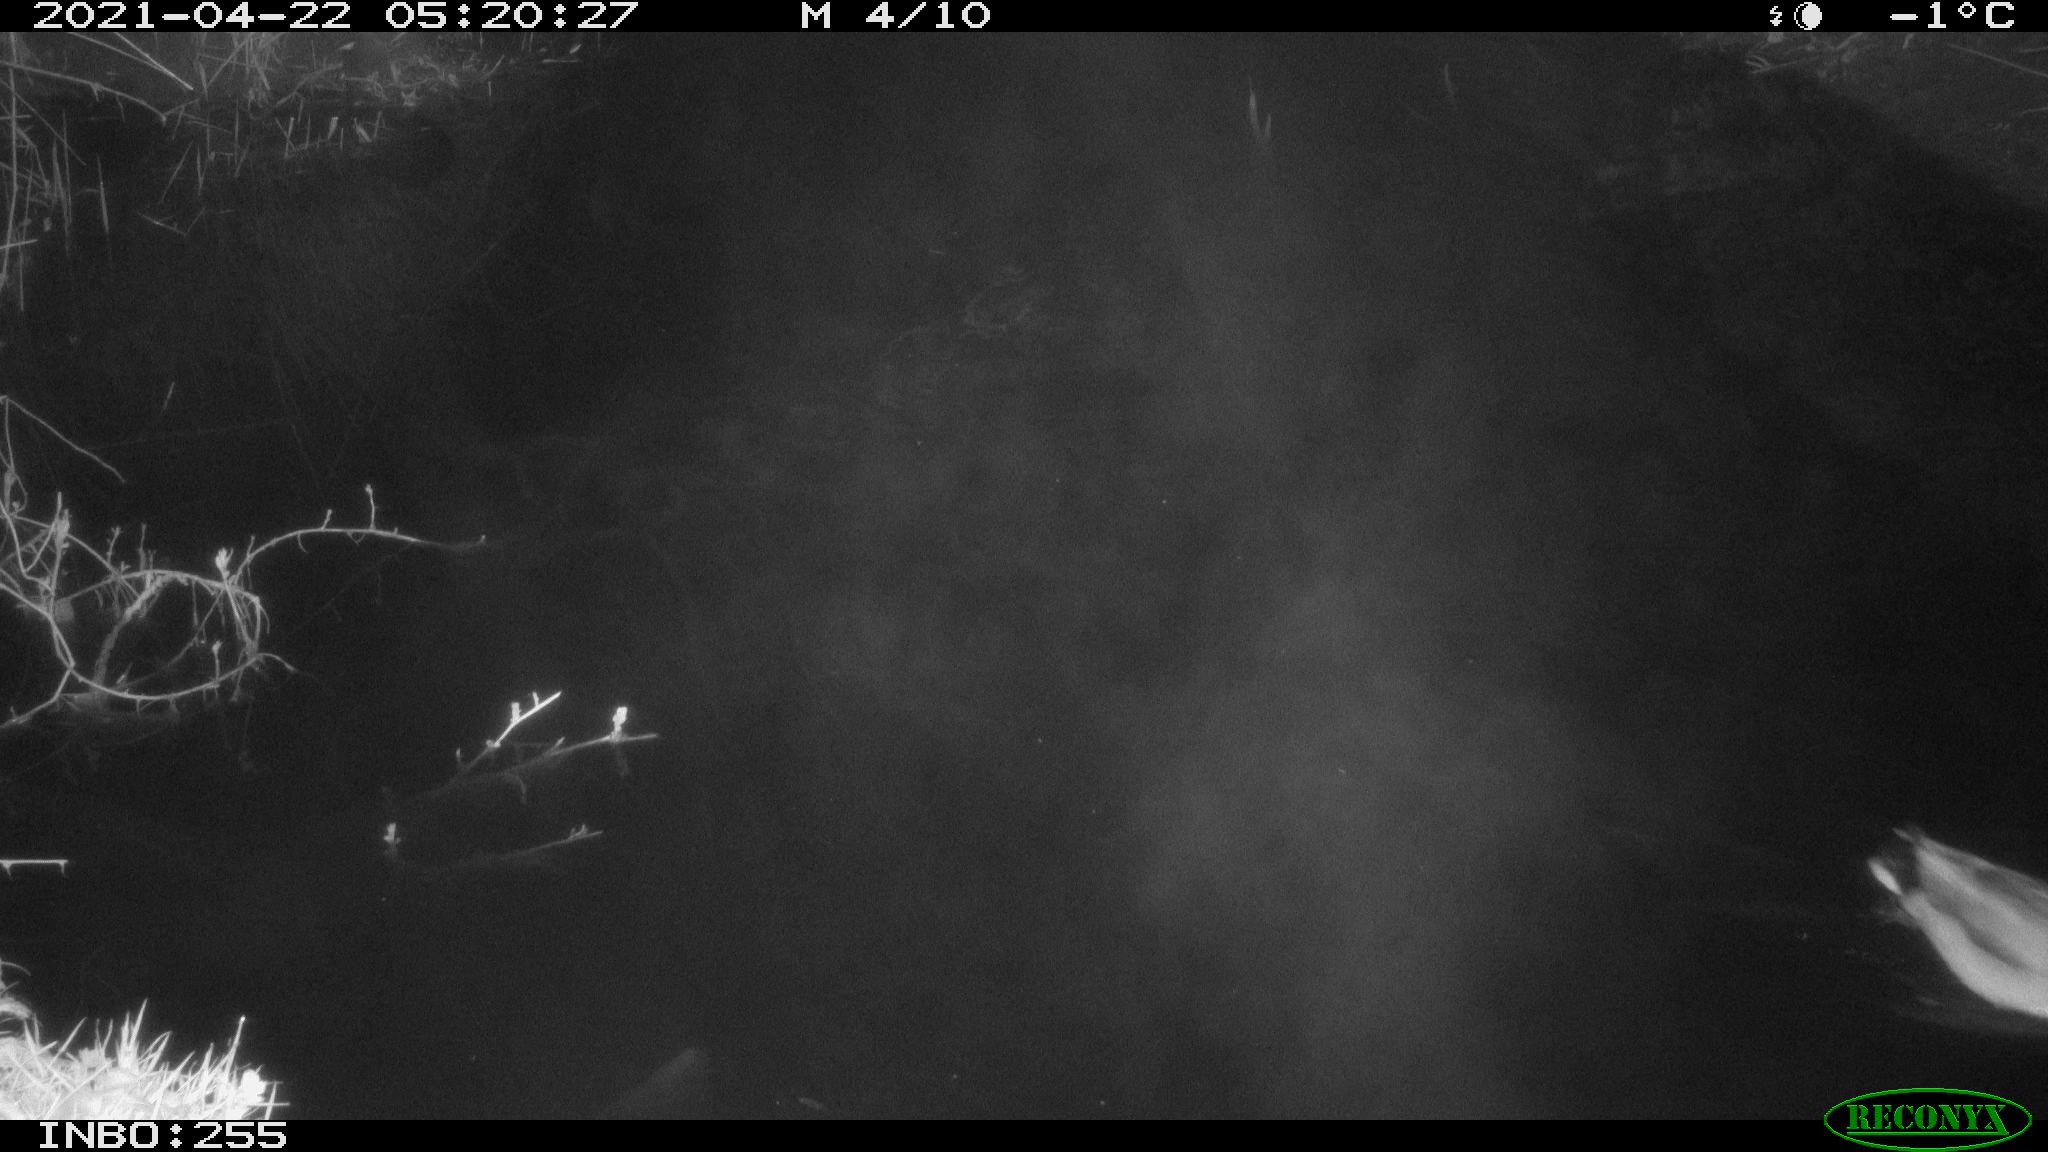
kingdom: Animalia
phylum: Chordata
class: Aves
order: Anseriformes
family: Anatidae
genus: Anas
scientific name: Anas platyrhynchos
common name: Mallard
